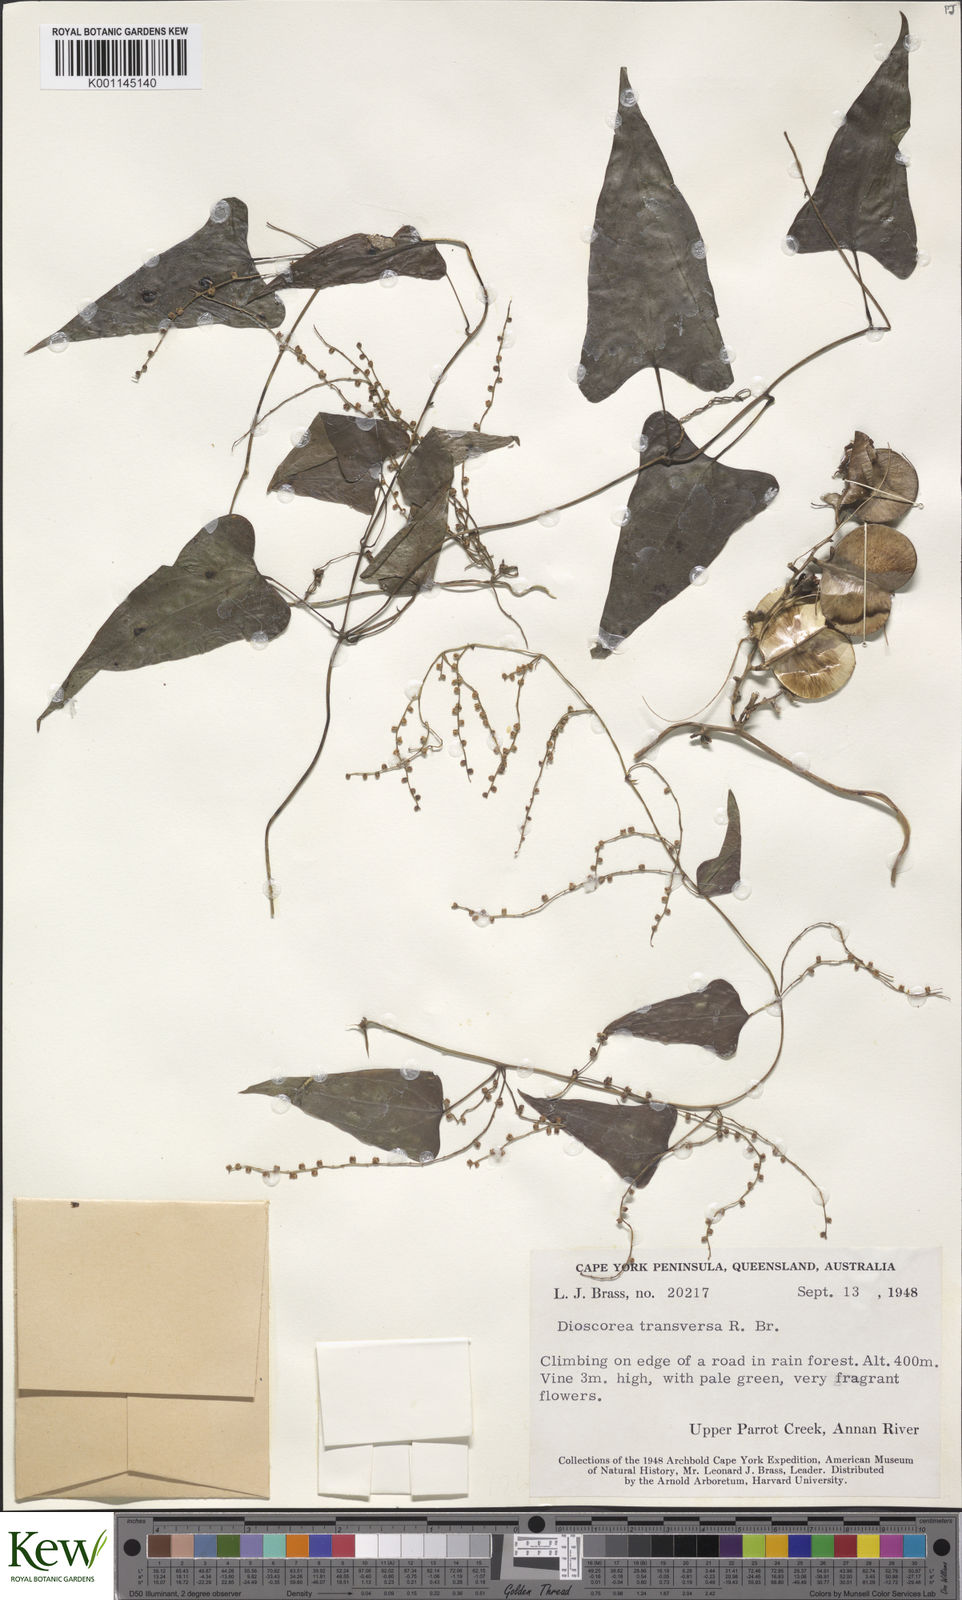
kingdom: Plantae
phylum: Tracheophyta
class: Liliopsida
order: Dioscoreales
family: Dioscoreaceae
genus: Dioscorea
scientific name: Dioscorea transversa
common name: Long yam
